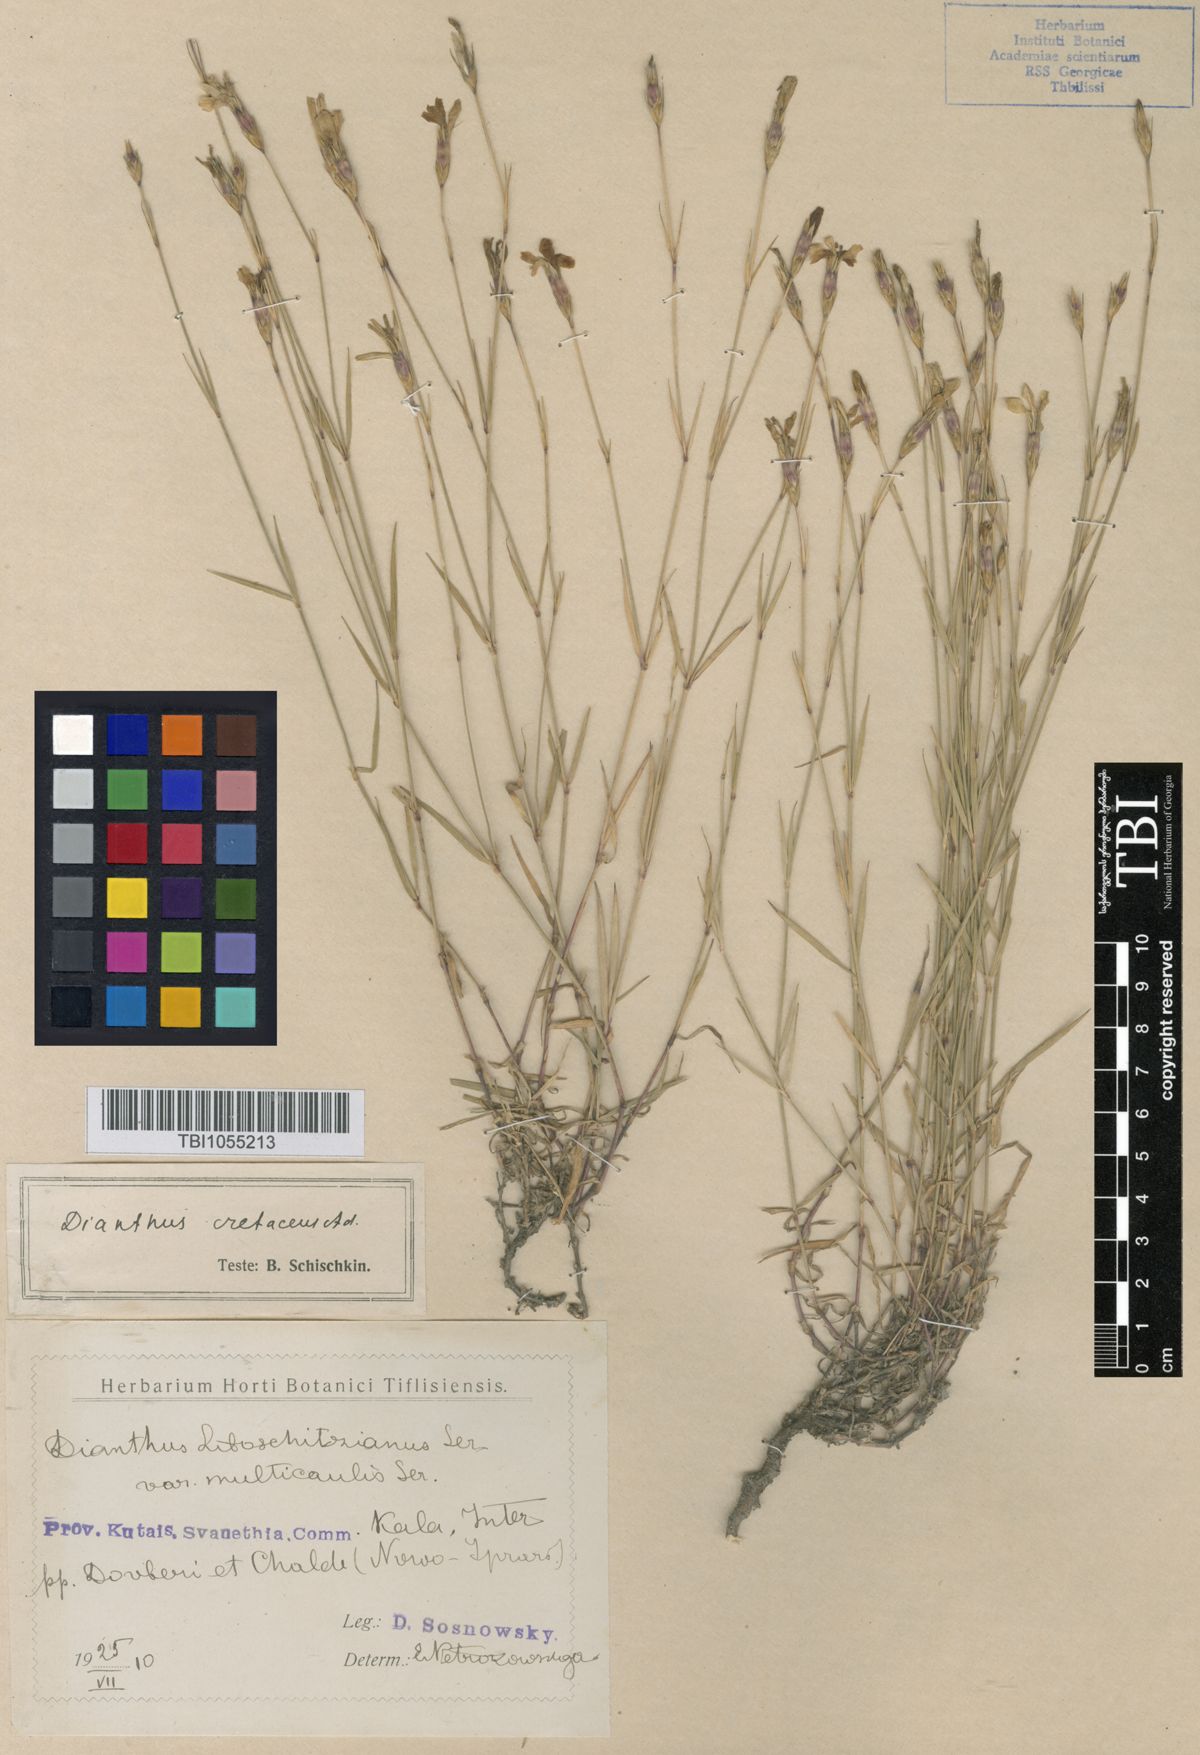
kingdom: Plantae
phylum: Tracheophyta
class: Magnoliopsida
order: Caryophyllales
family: Caryophyllaceae
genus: Dianthus
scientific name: Dianthus cretaceus
